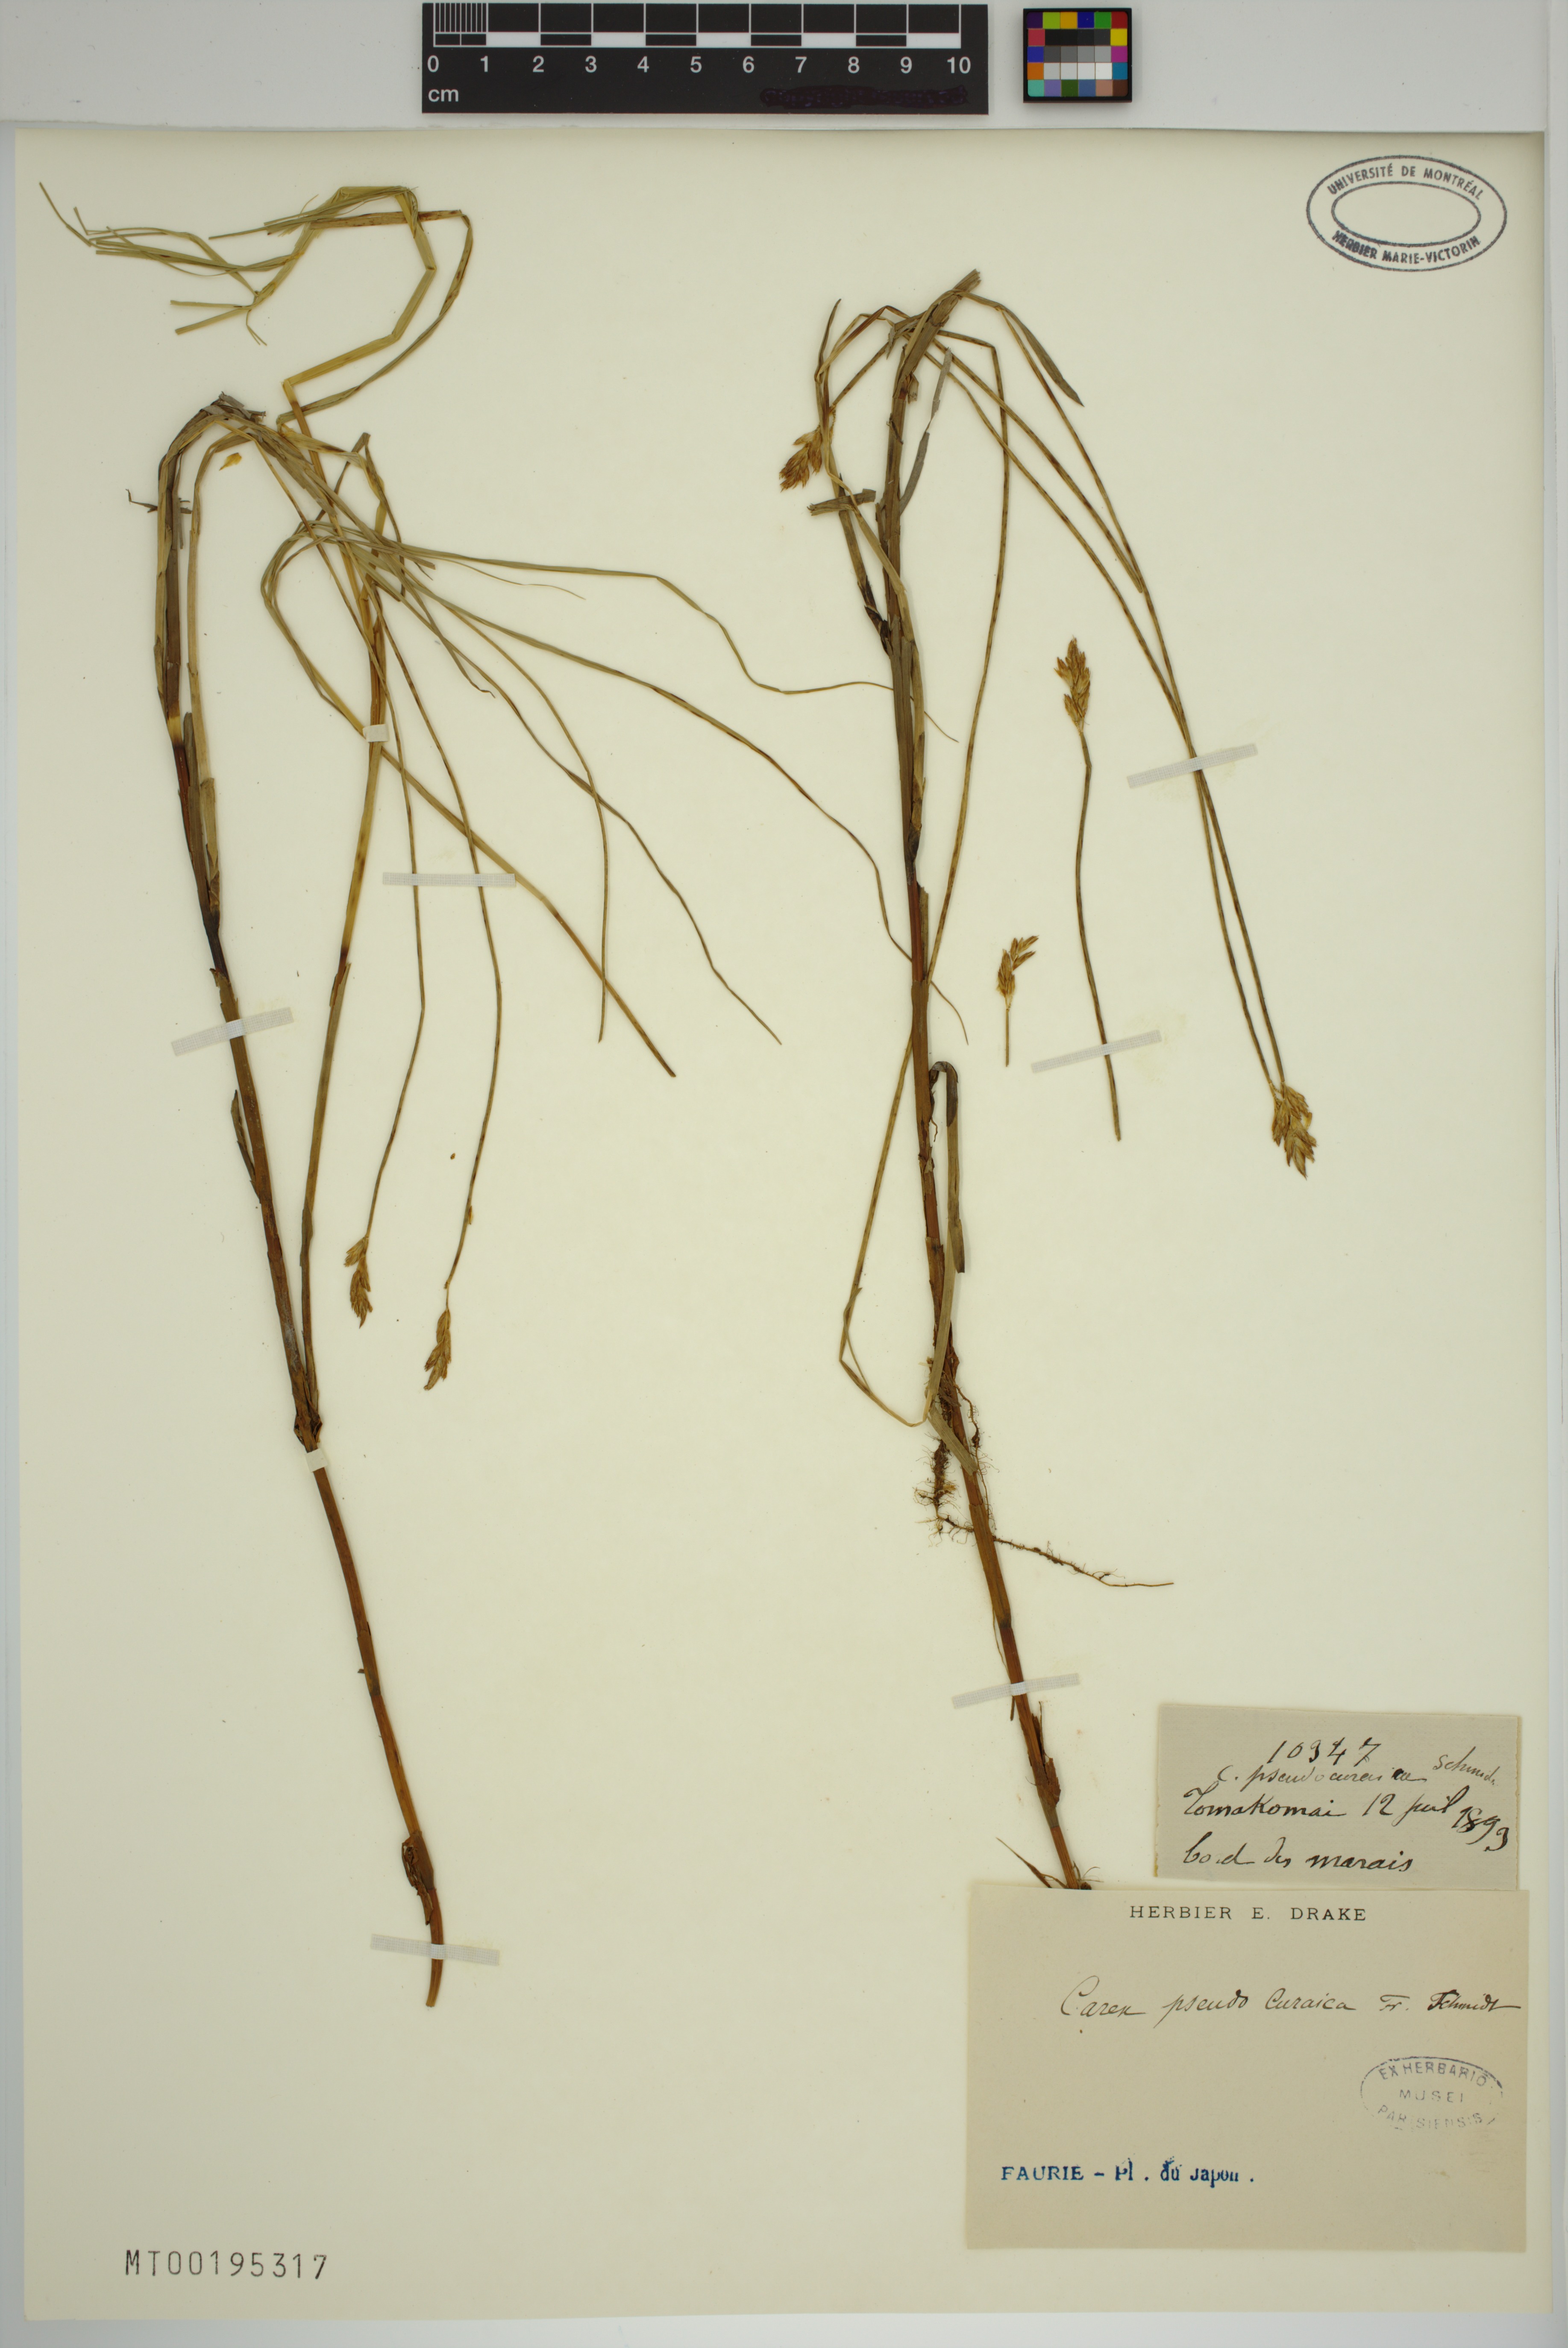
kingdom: Plantae
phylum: Tracheophyta
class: Liliopsida
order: Poales
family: Cyperaceae
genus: Carex
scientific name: Carex pseudocuraica
